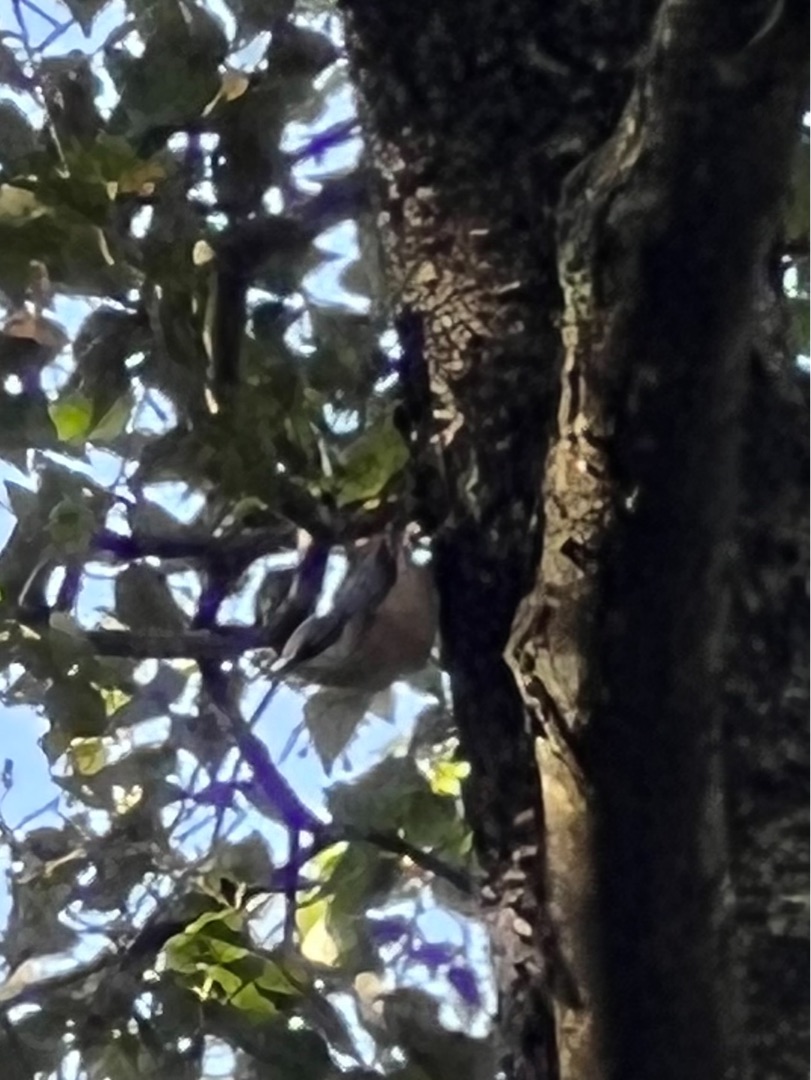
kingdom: Animalia
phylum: Chordata
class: Aves
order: Passeriformes
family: Sittidae
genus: Sitta
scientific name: Sitta europaea
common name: Spætmejse
